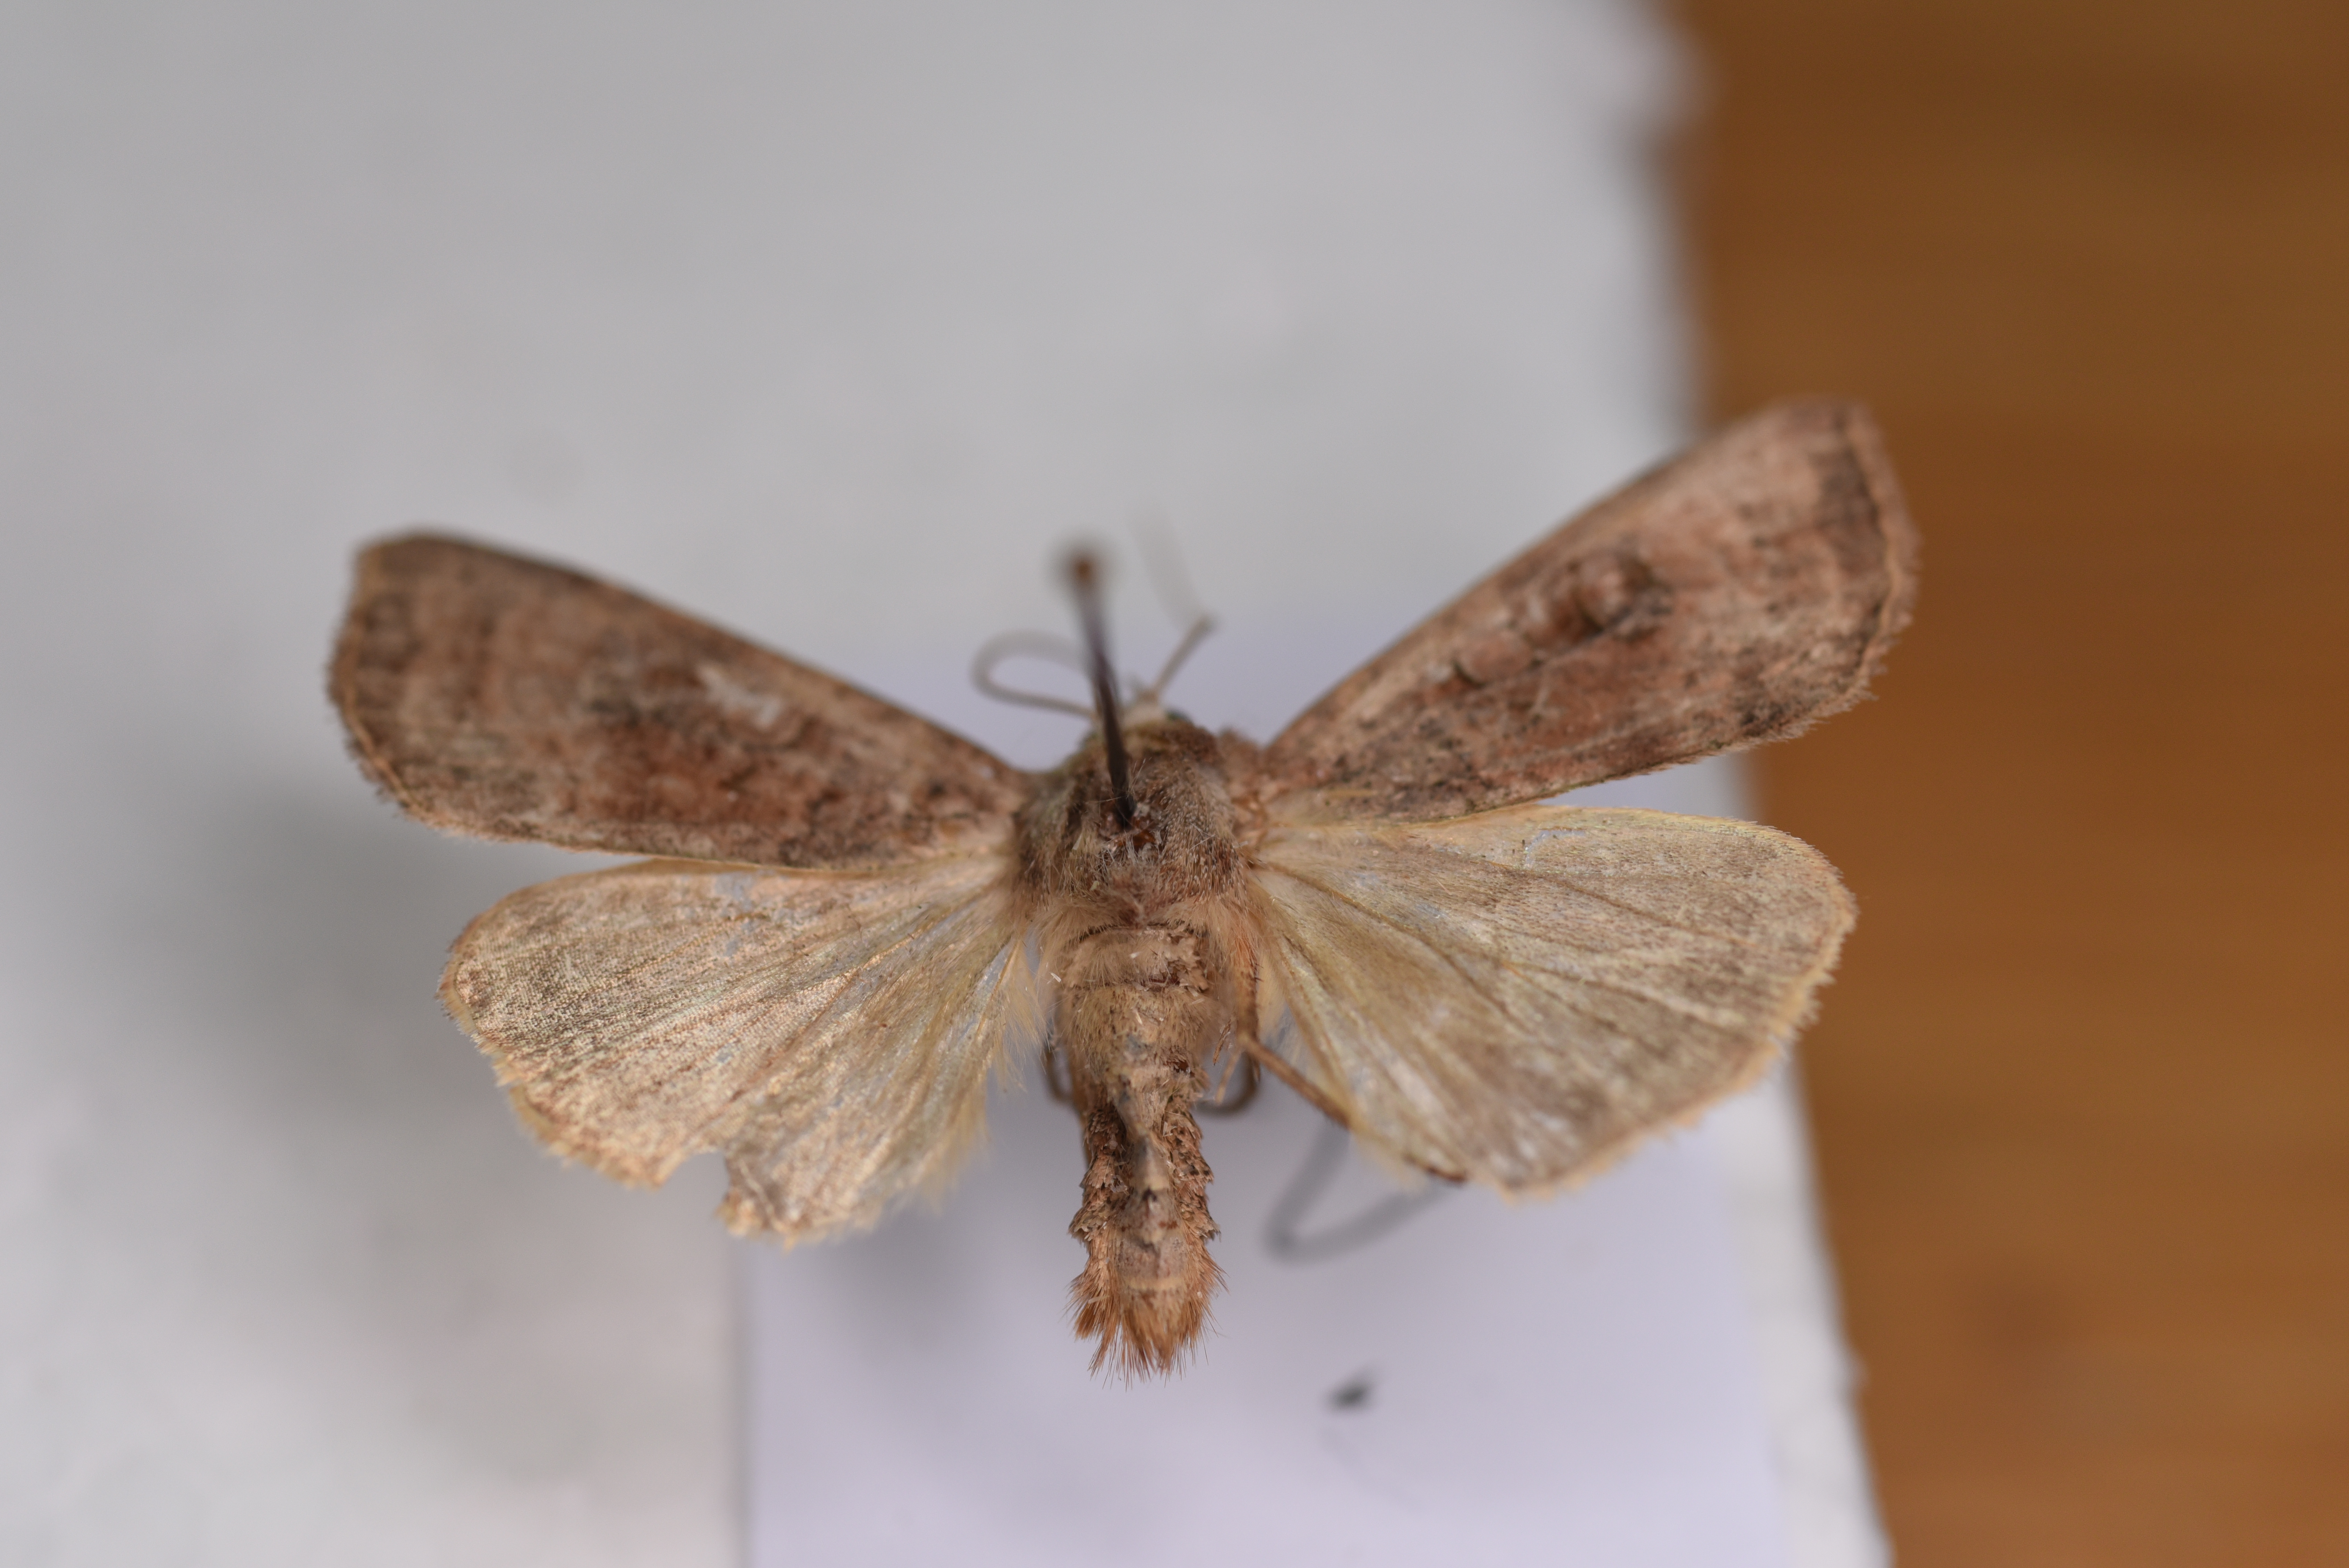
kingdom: Animalia
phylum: Arthropoda
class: Insecta
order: Lepidoptera
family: Noctuidae
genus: Diarsia
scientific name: Diarsia dahlii
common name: Barred chestnut
